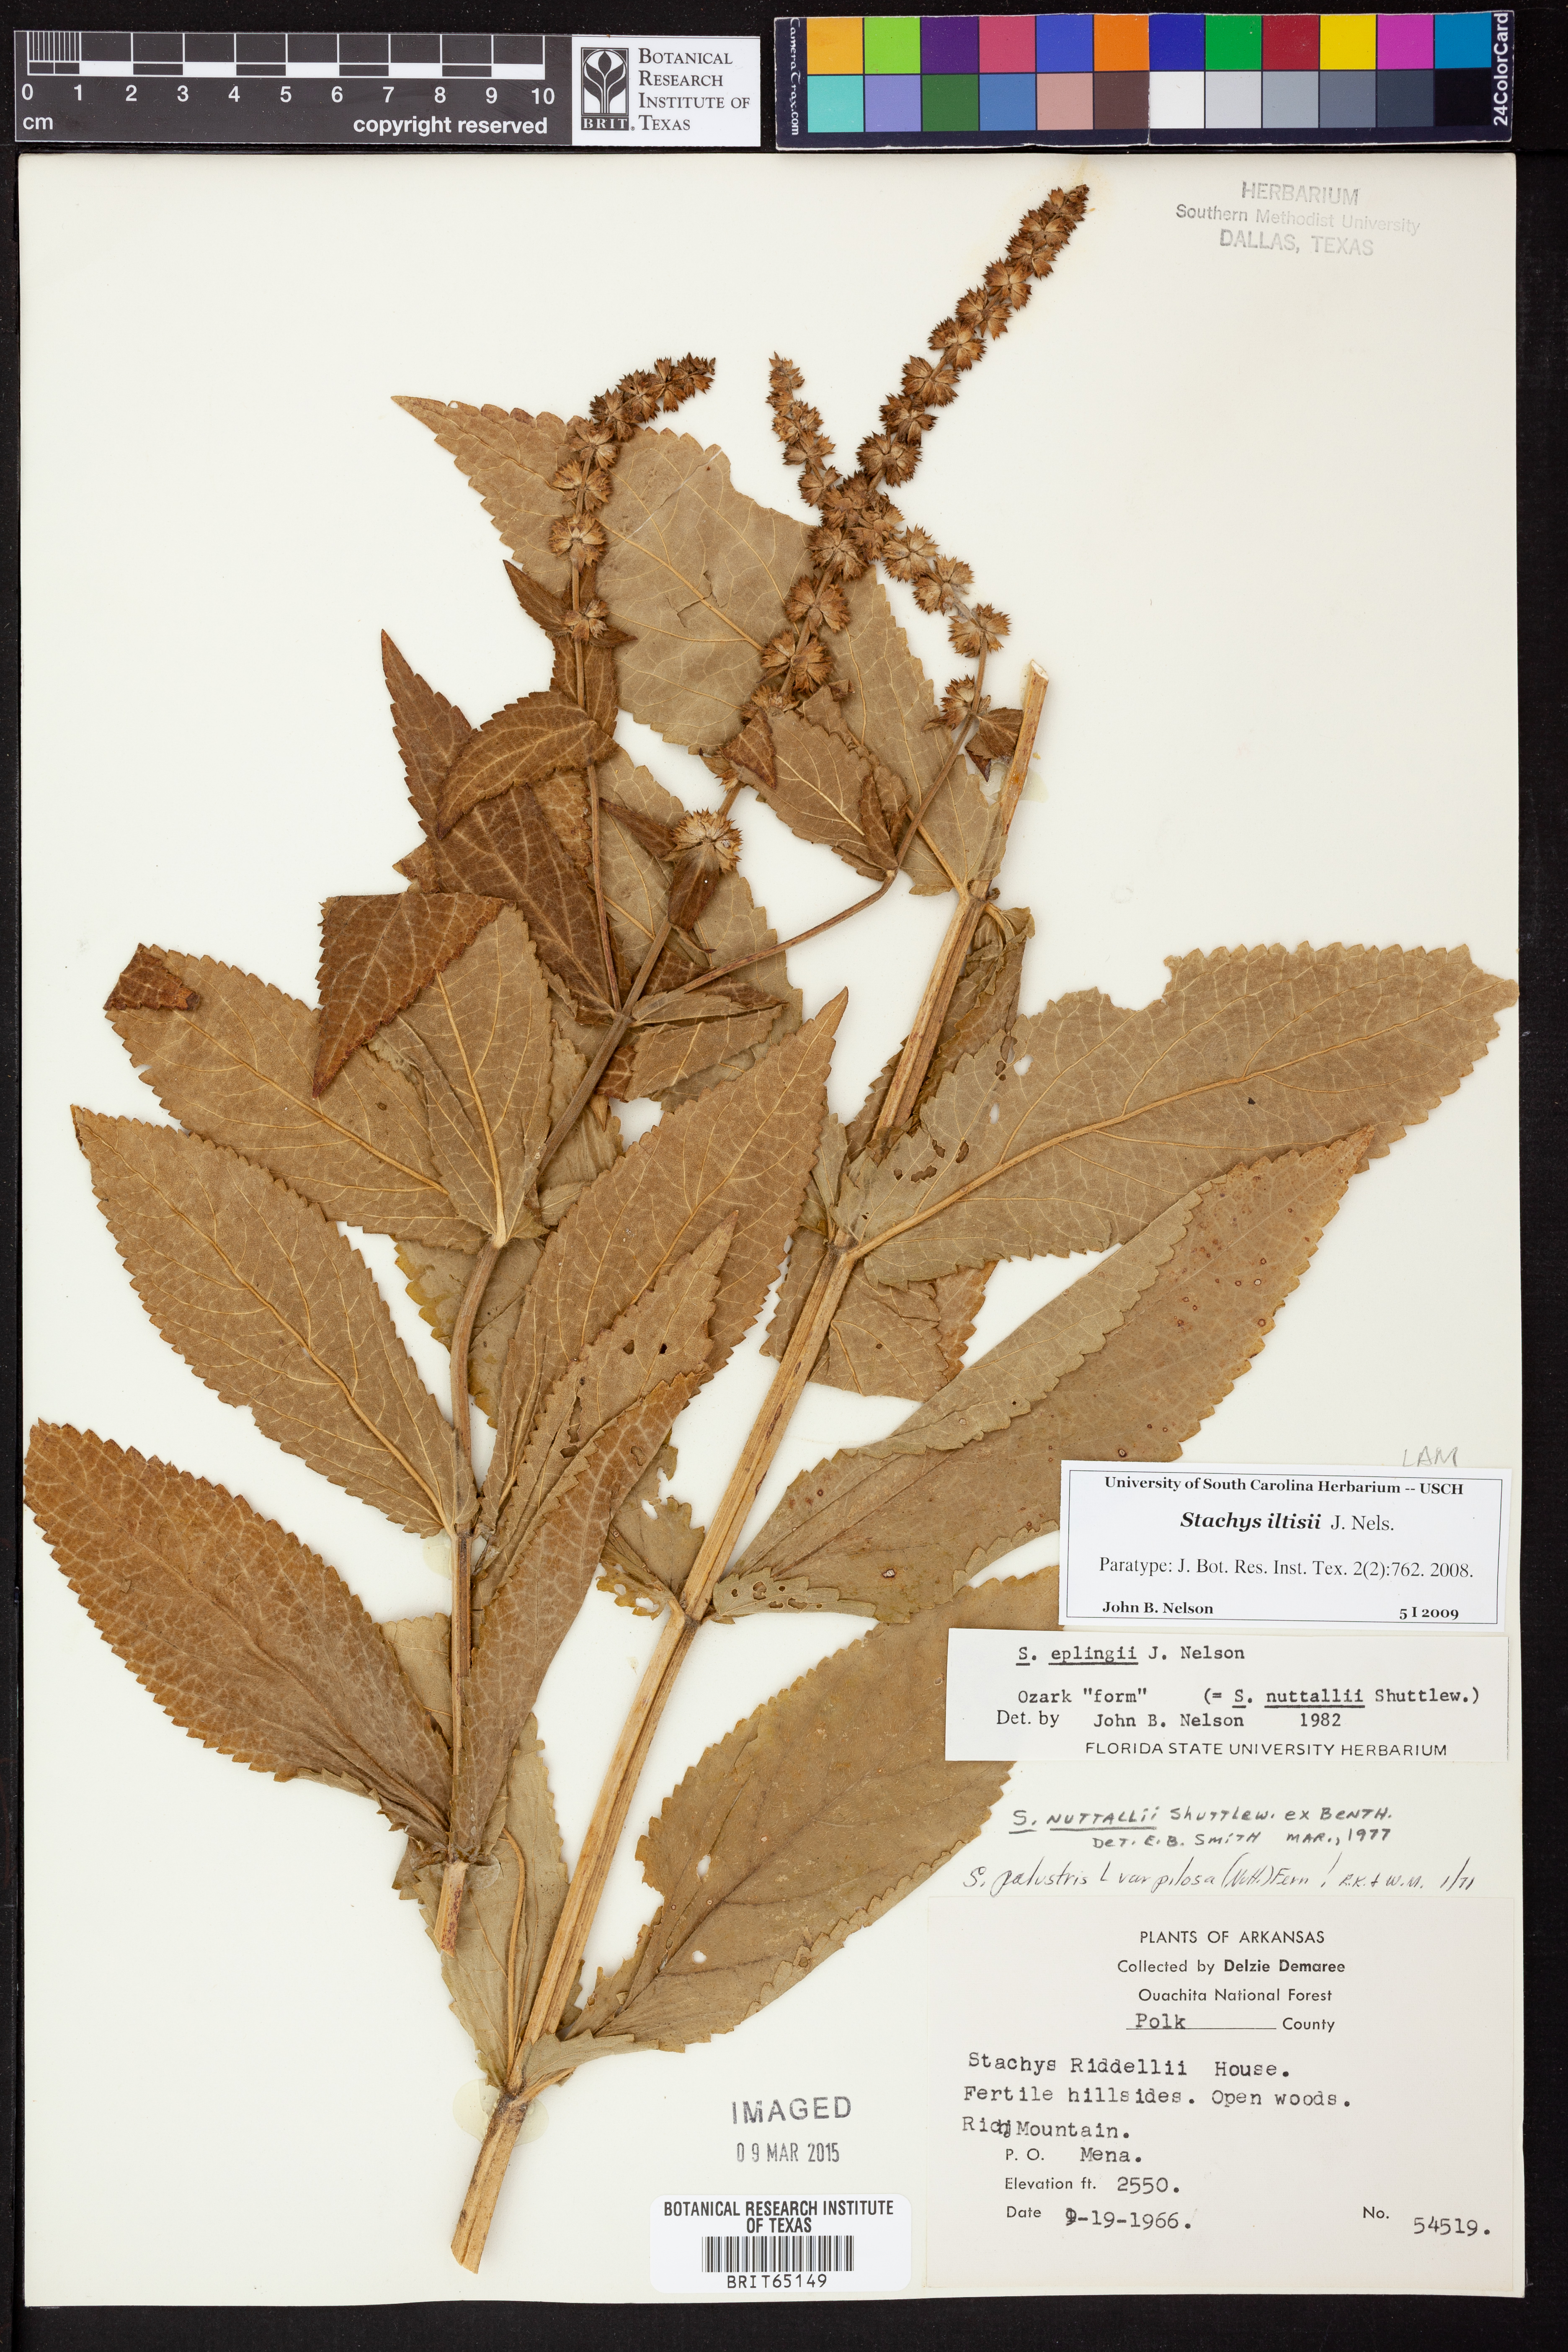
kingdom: Plantae
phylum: Tracheophyta
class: Magnoliopsida
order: Lamiales
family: Lamiaceae
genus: Stachys
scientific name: Stachys iltisii
